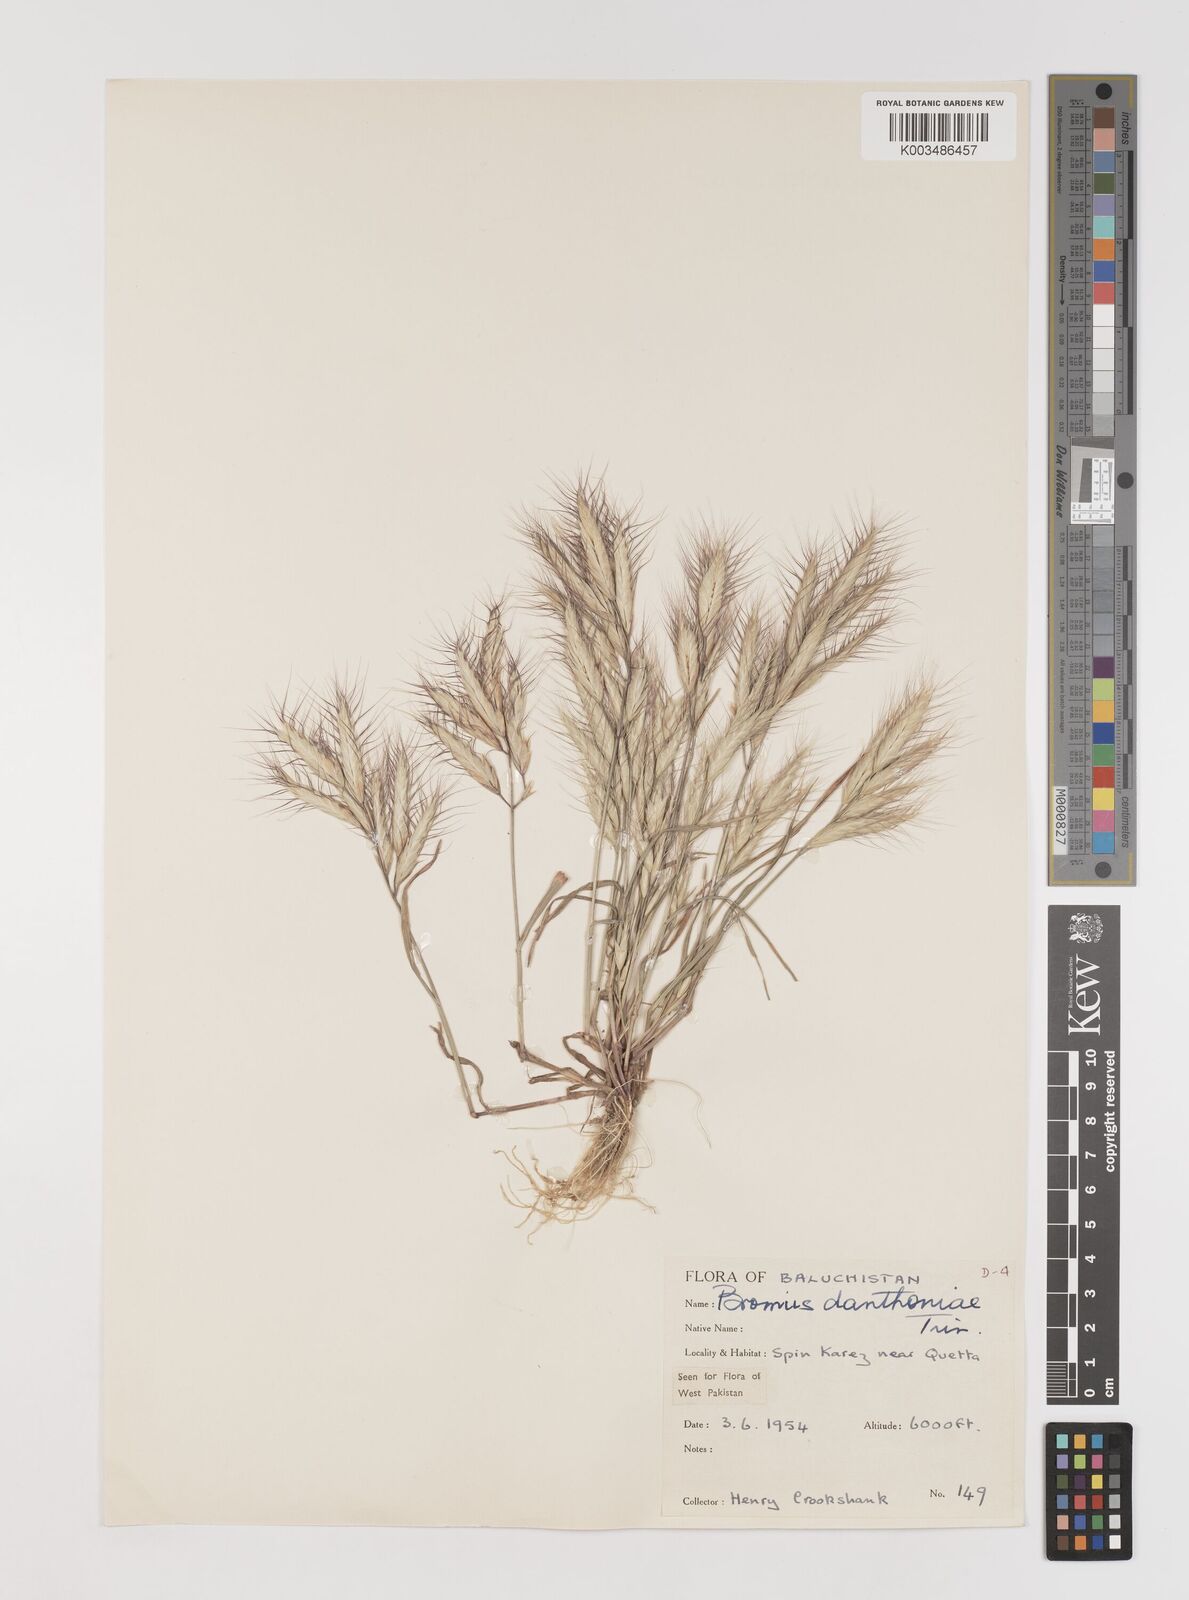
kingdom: Plantae
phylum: Tracheophyta
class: Liliopsida
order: Poales
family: Poaceae
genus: Bromus
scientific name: Bromus danthoniae
